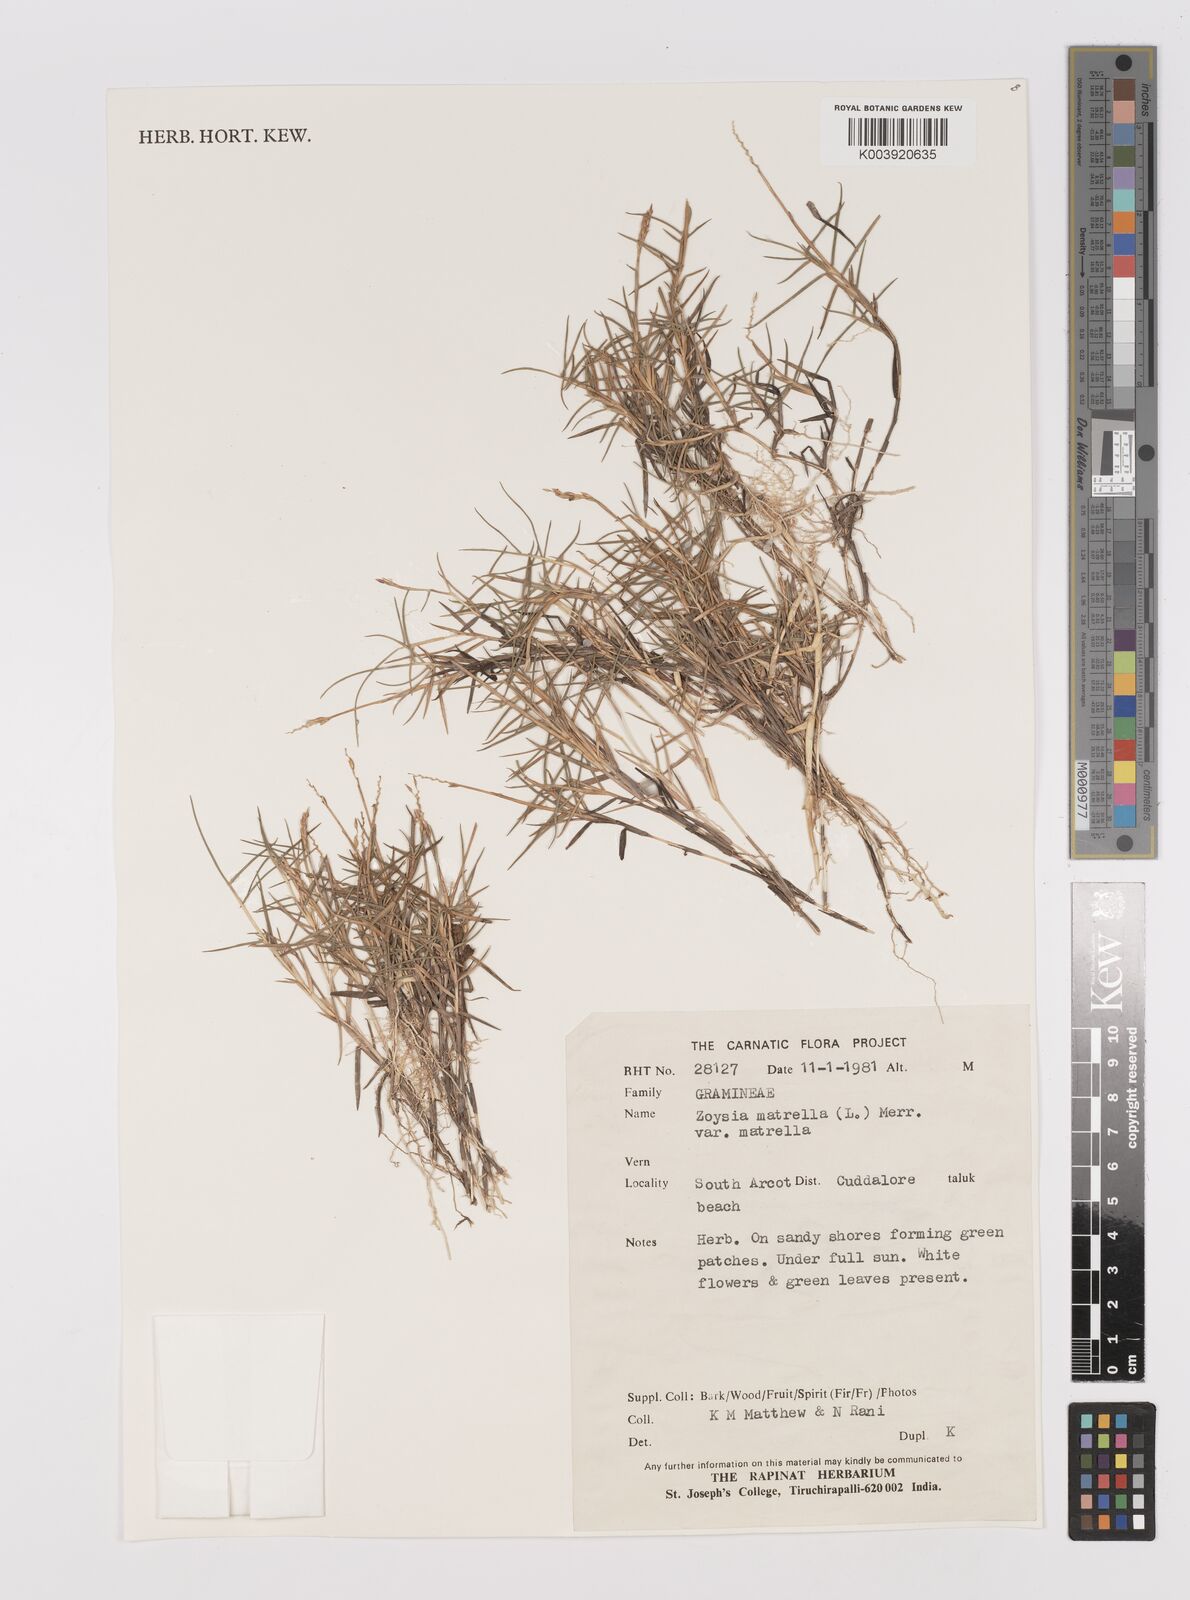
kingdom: Plantae
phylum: Tracheophyta
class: Liliopsida
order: Poales
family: Poaceae
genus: Zoysia
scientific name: Zoysia matrella
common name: Manila grass
